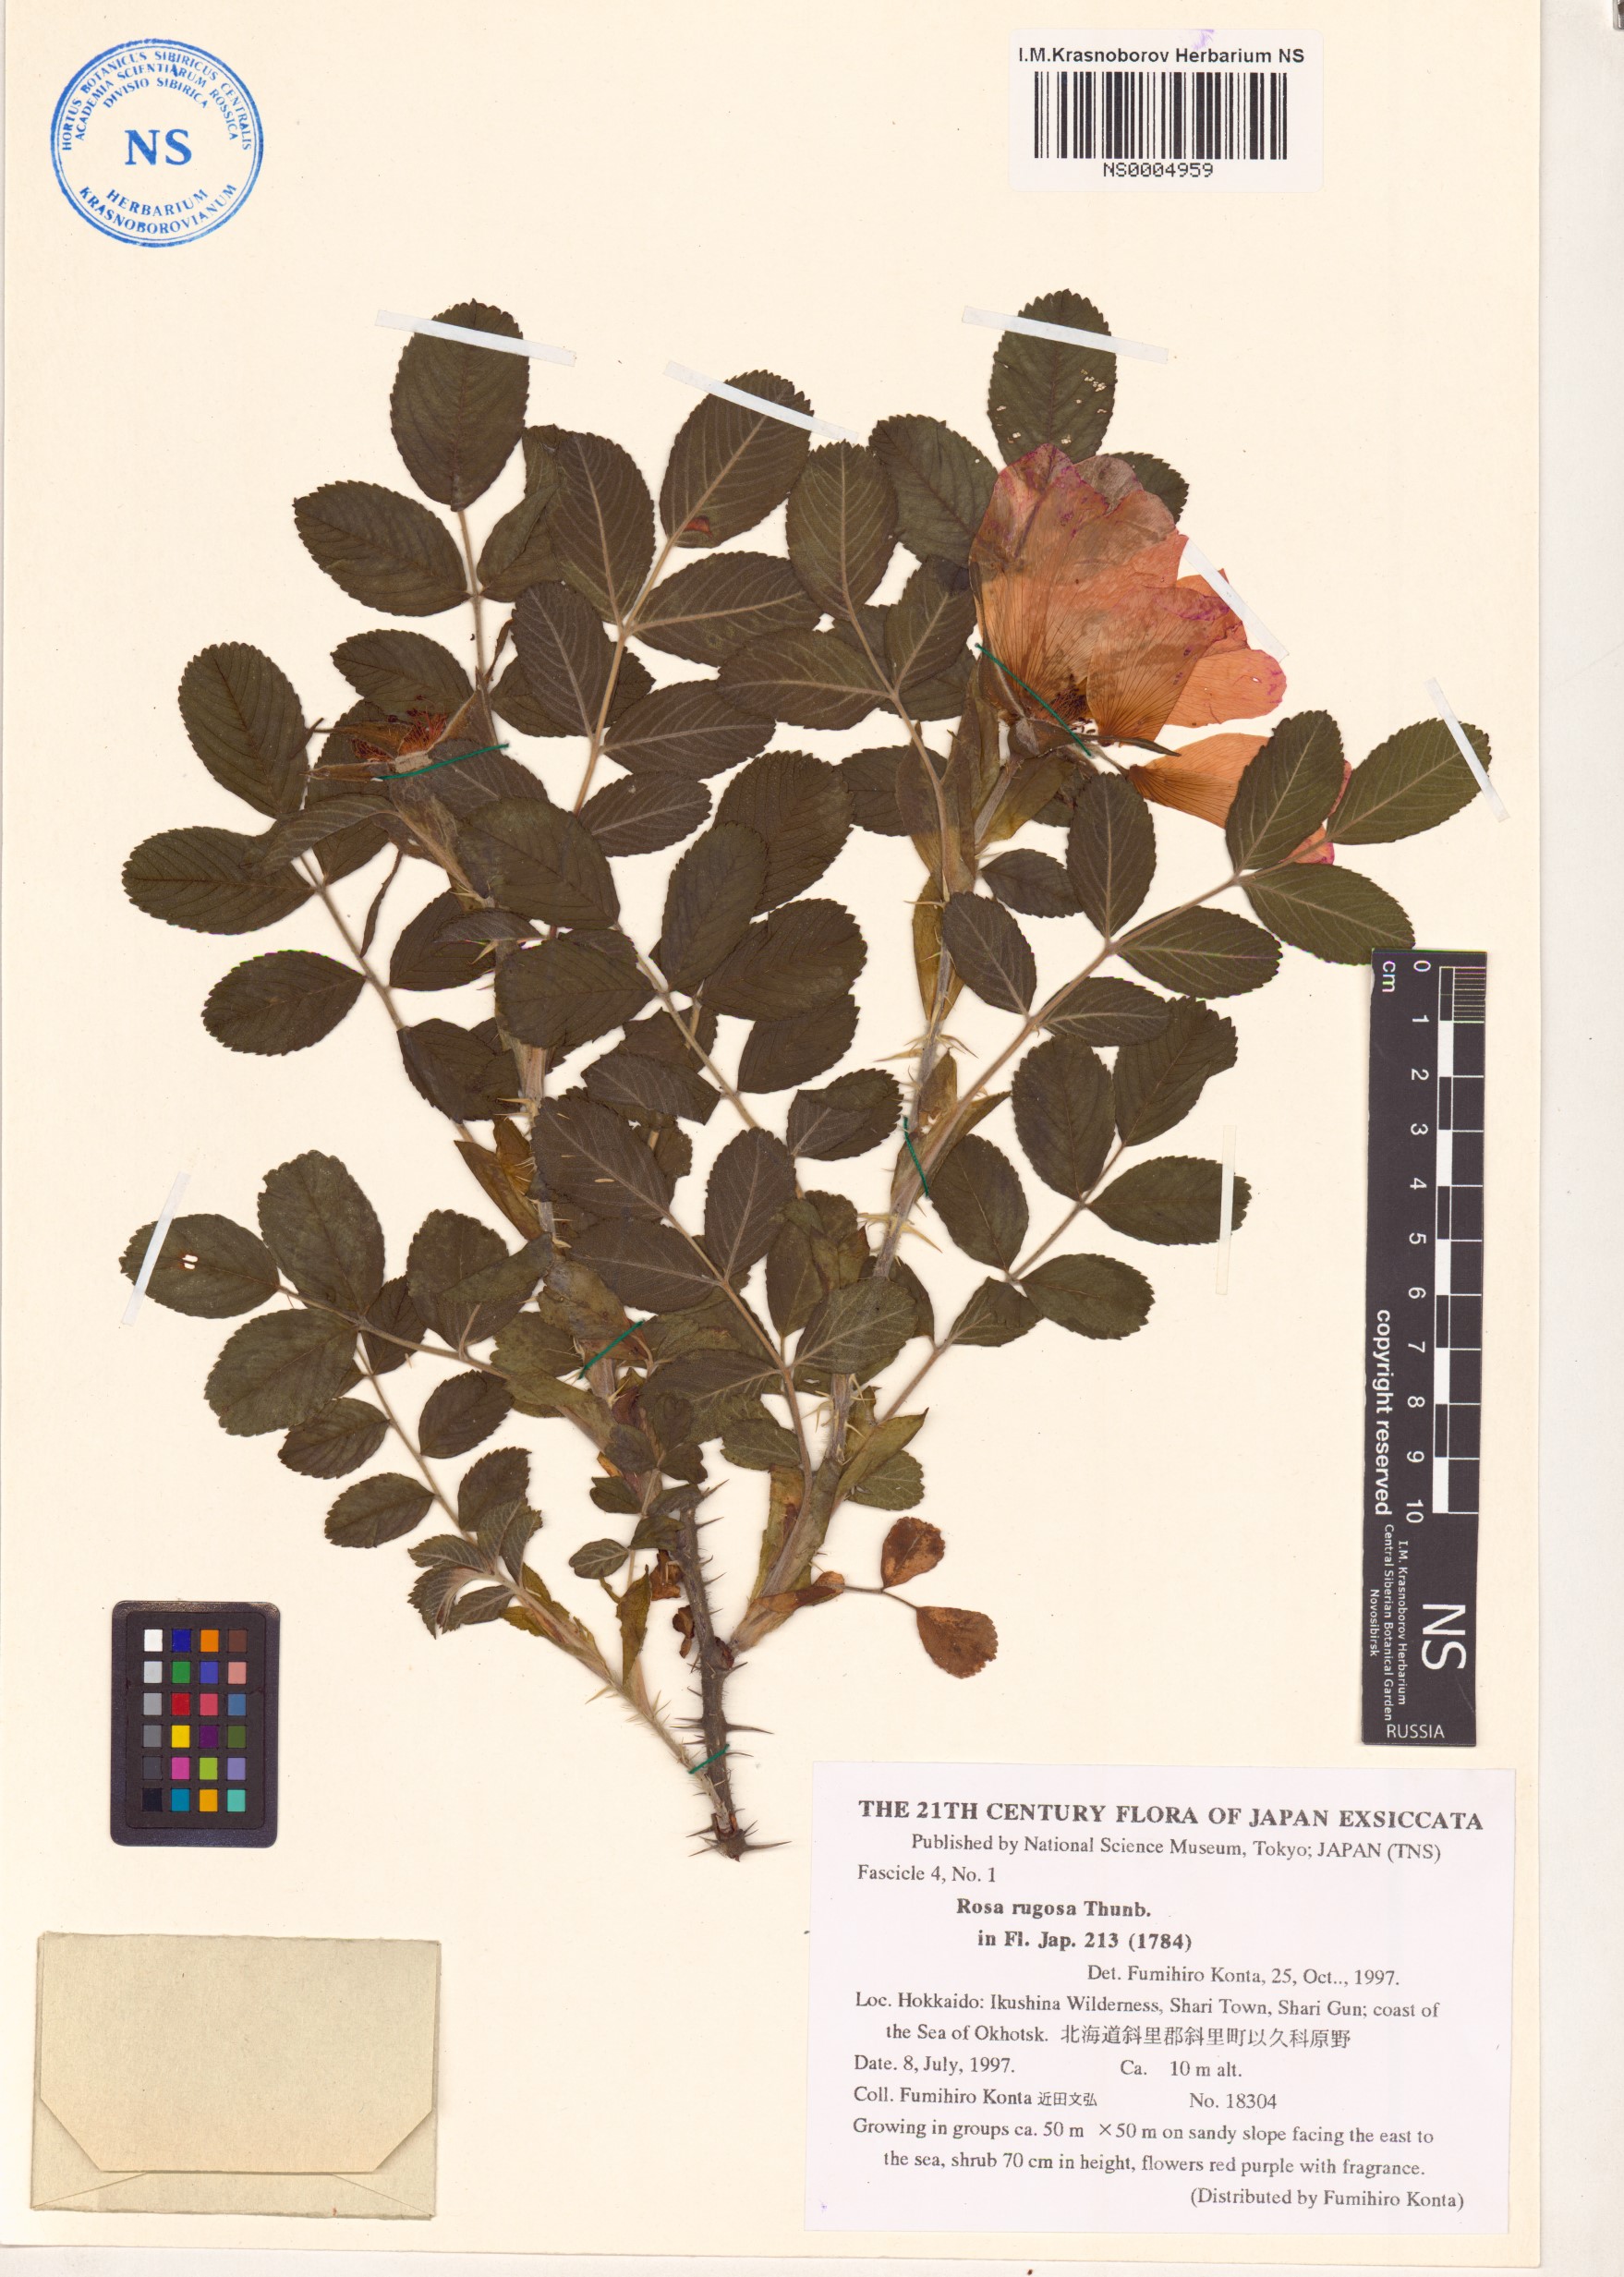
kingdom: Plantae
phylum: Tracheophyta
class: Magnoliopsida
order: Rosales
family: Rosaceae
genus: Rosa
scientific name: Rosa rugosa
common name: Japanese rose
